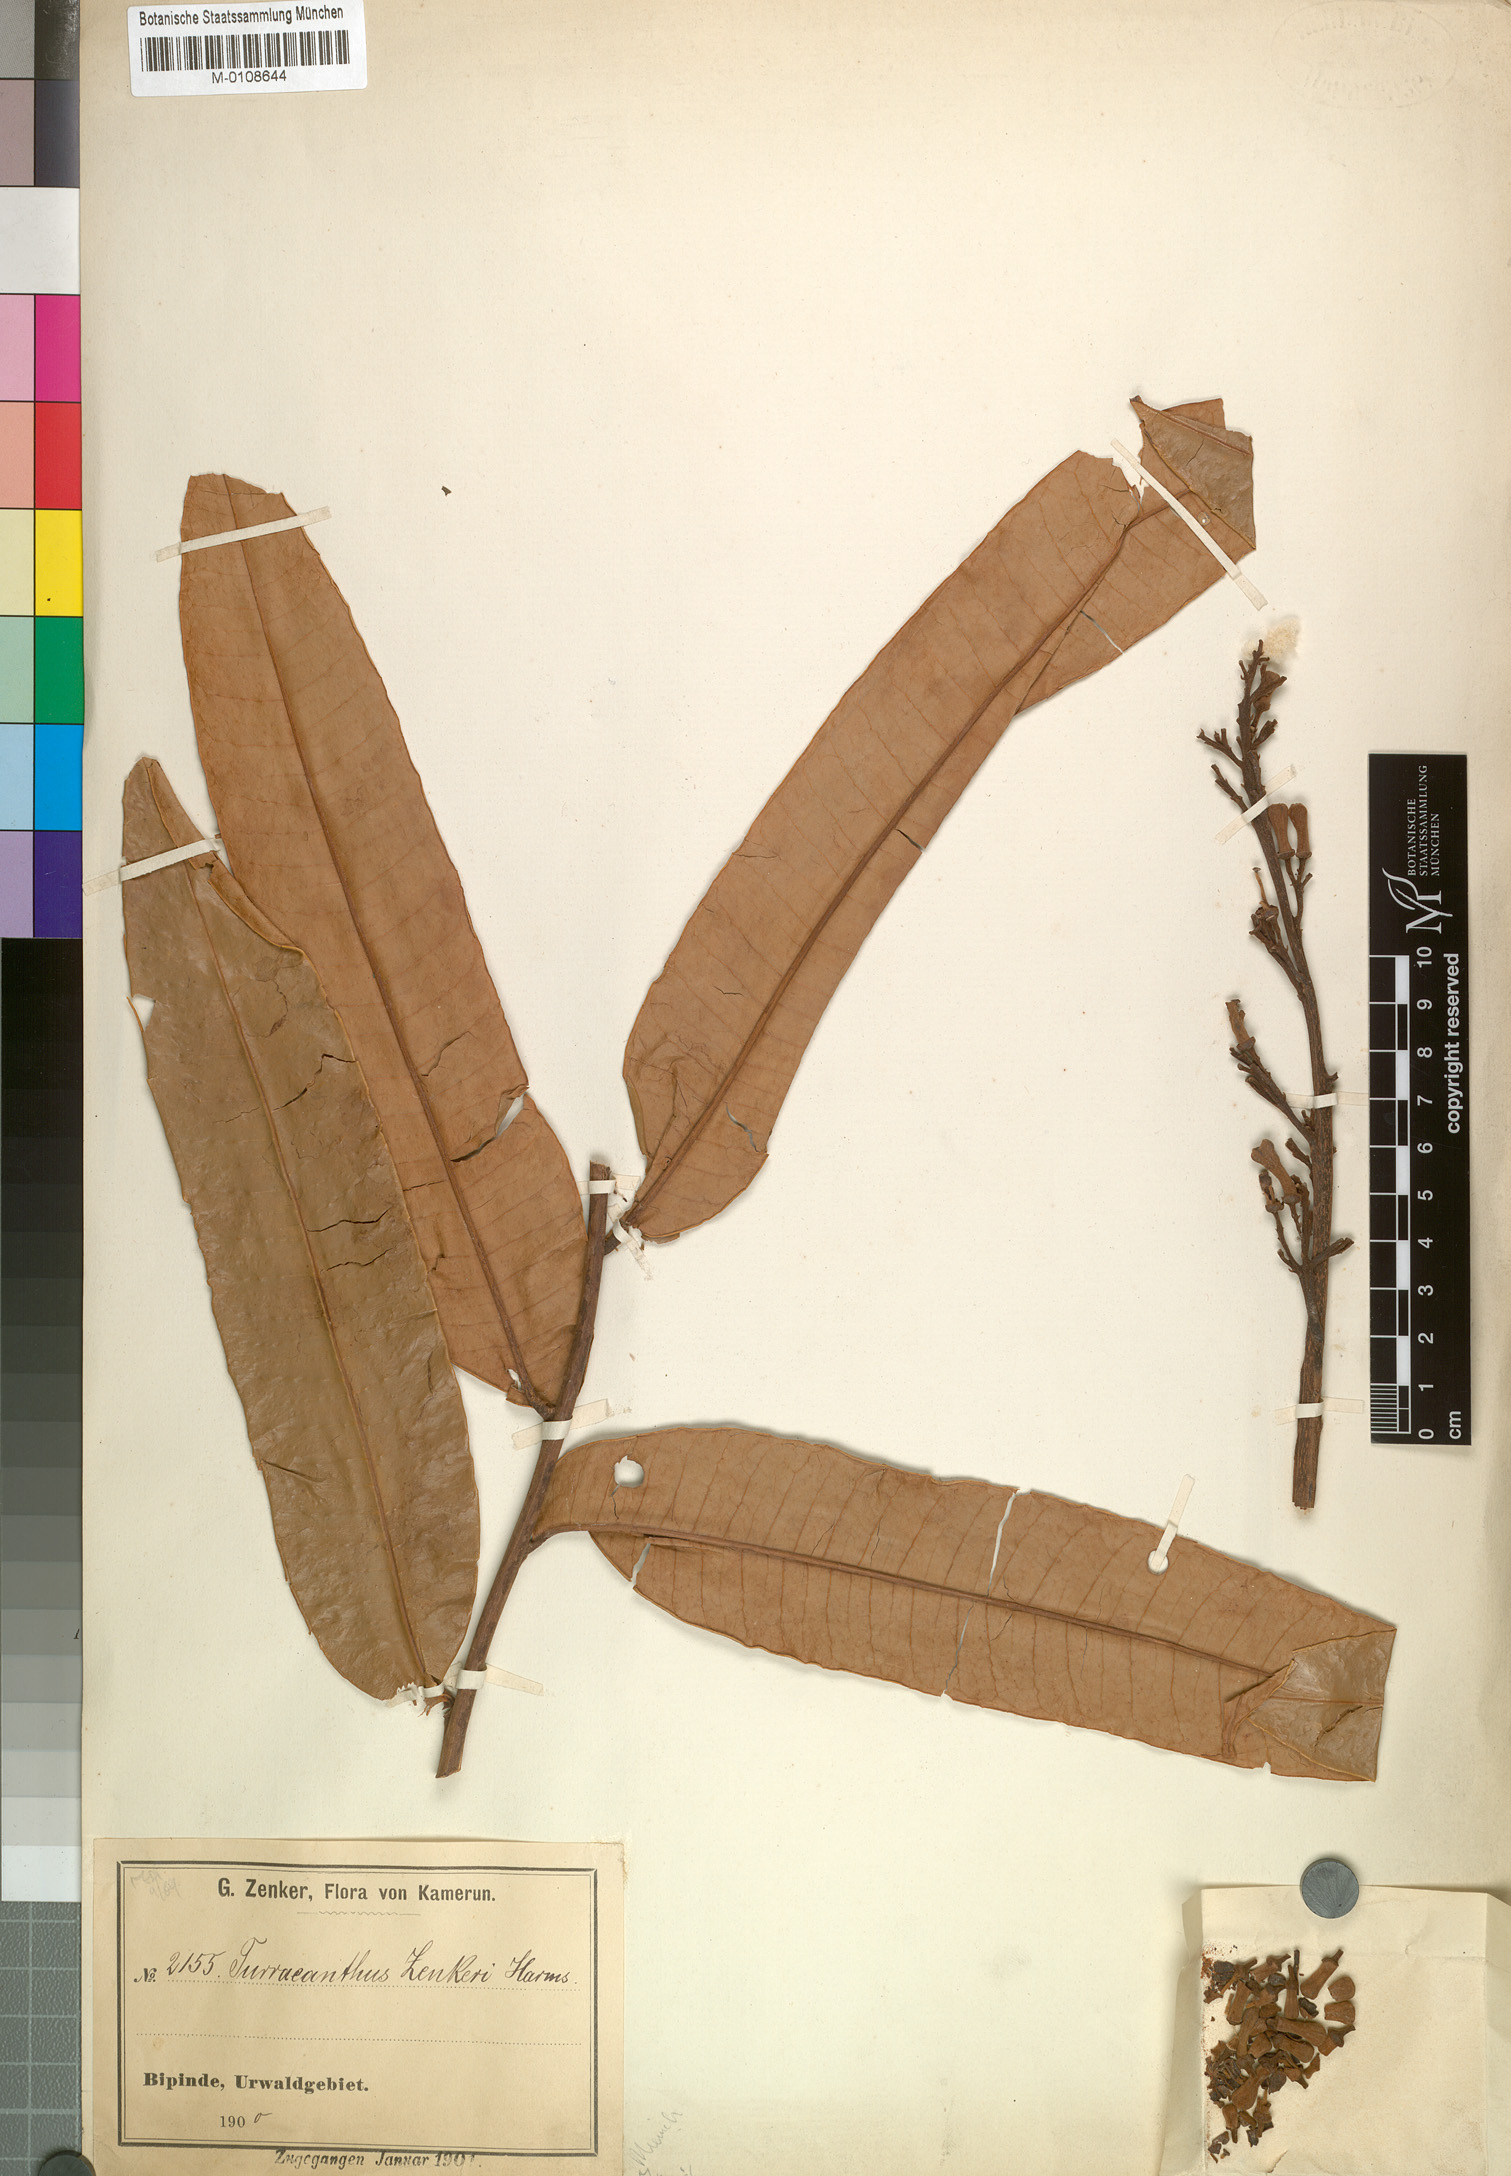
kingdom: Plantae
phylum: Tracheophyta
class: Magnoliopsida
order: Sapindales
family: Meliaceae
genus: Turraeanthus
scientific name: Turraeanthus africanus
